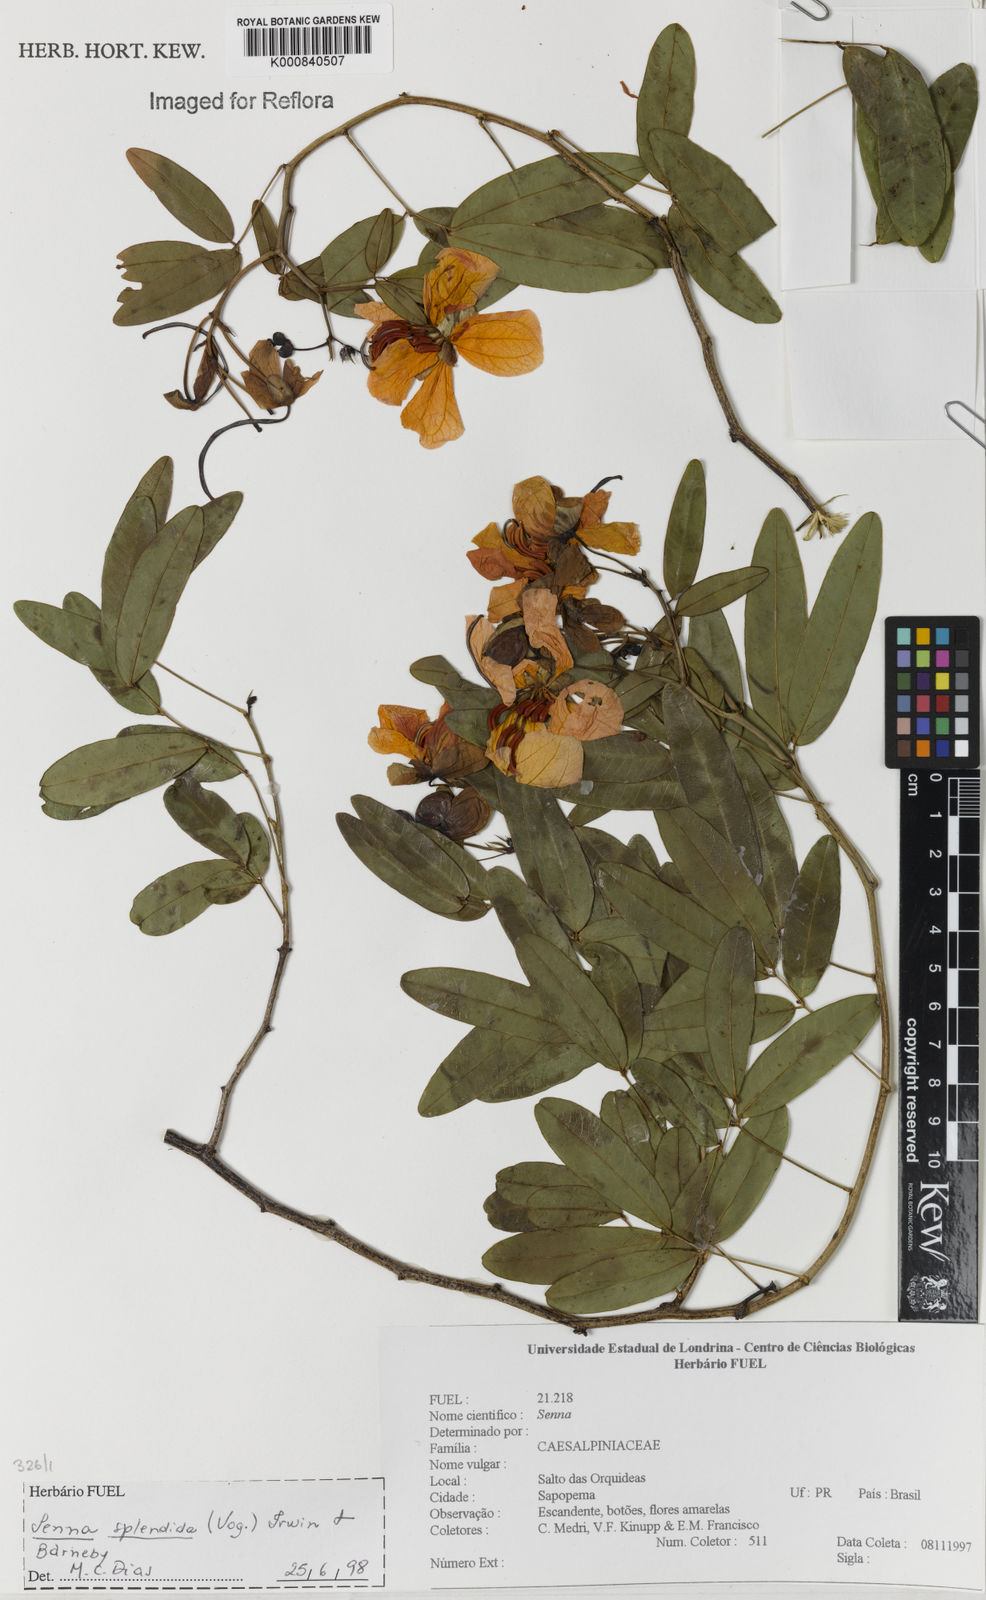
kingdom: Plantae
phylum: Tracheophyta
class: Magnoliopsida
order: Fabales
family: Fabaceae
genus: Senna
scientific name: Senna splendida
